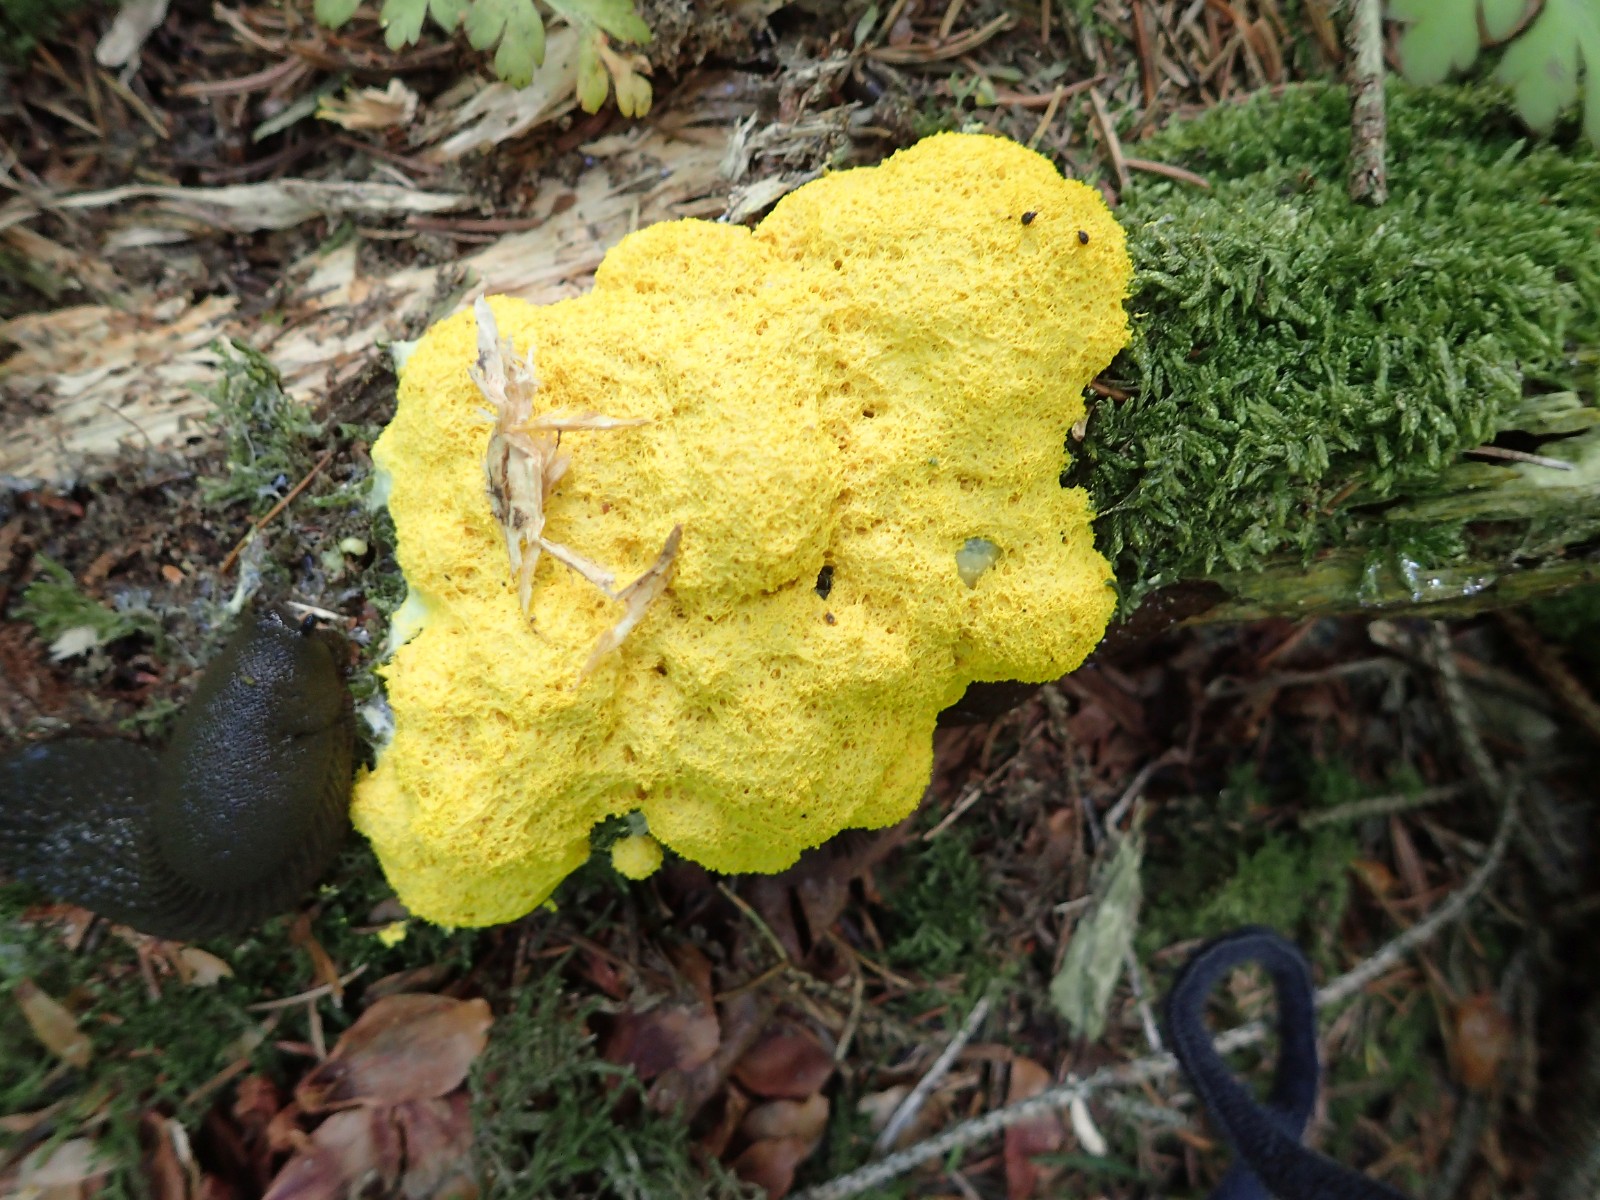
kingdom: Protozoa
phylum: Mycetozoa
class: Myxomycetes
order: Physarales
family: Physaraceae
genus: Fuligo
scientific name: Fuligo septica
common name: gul troldsmør
